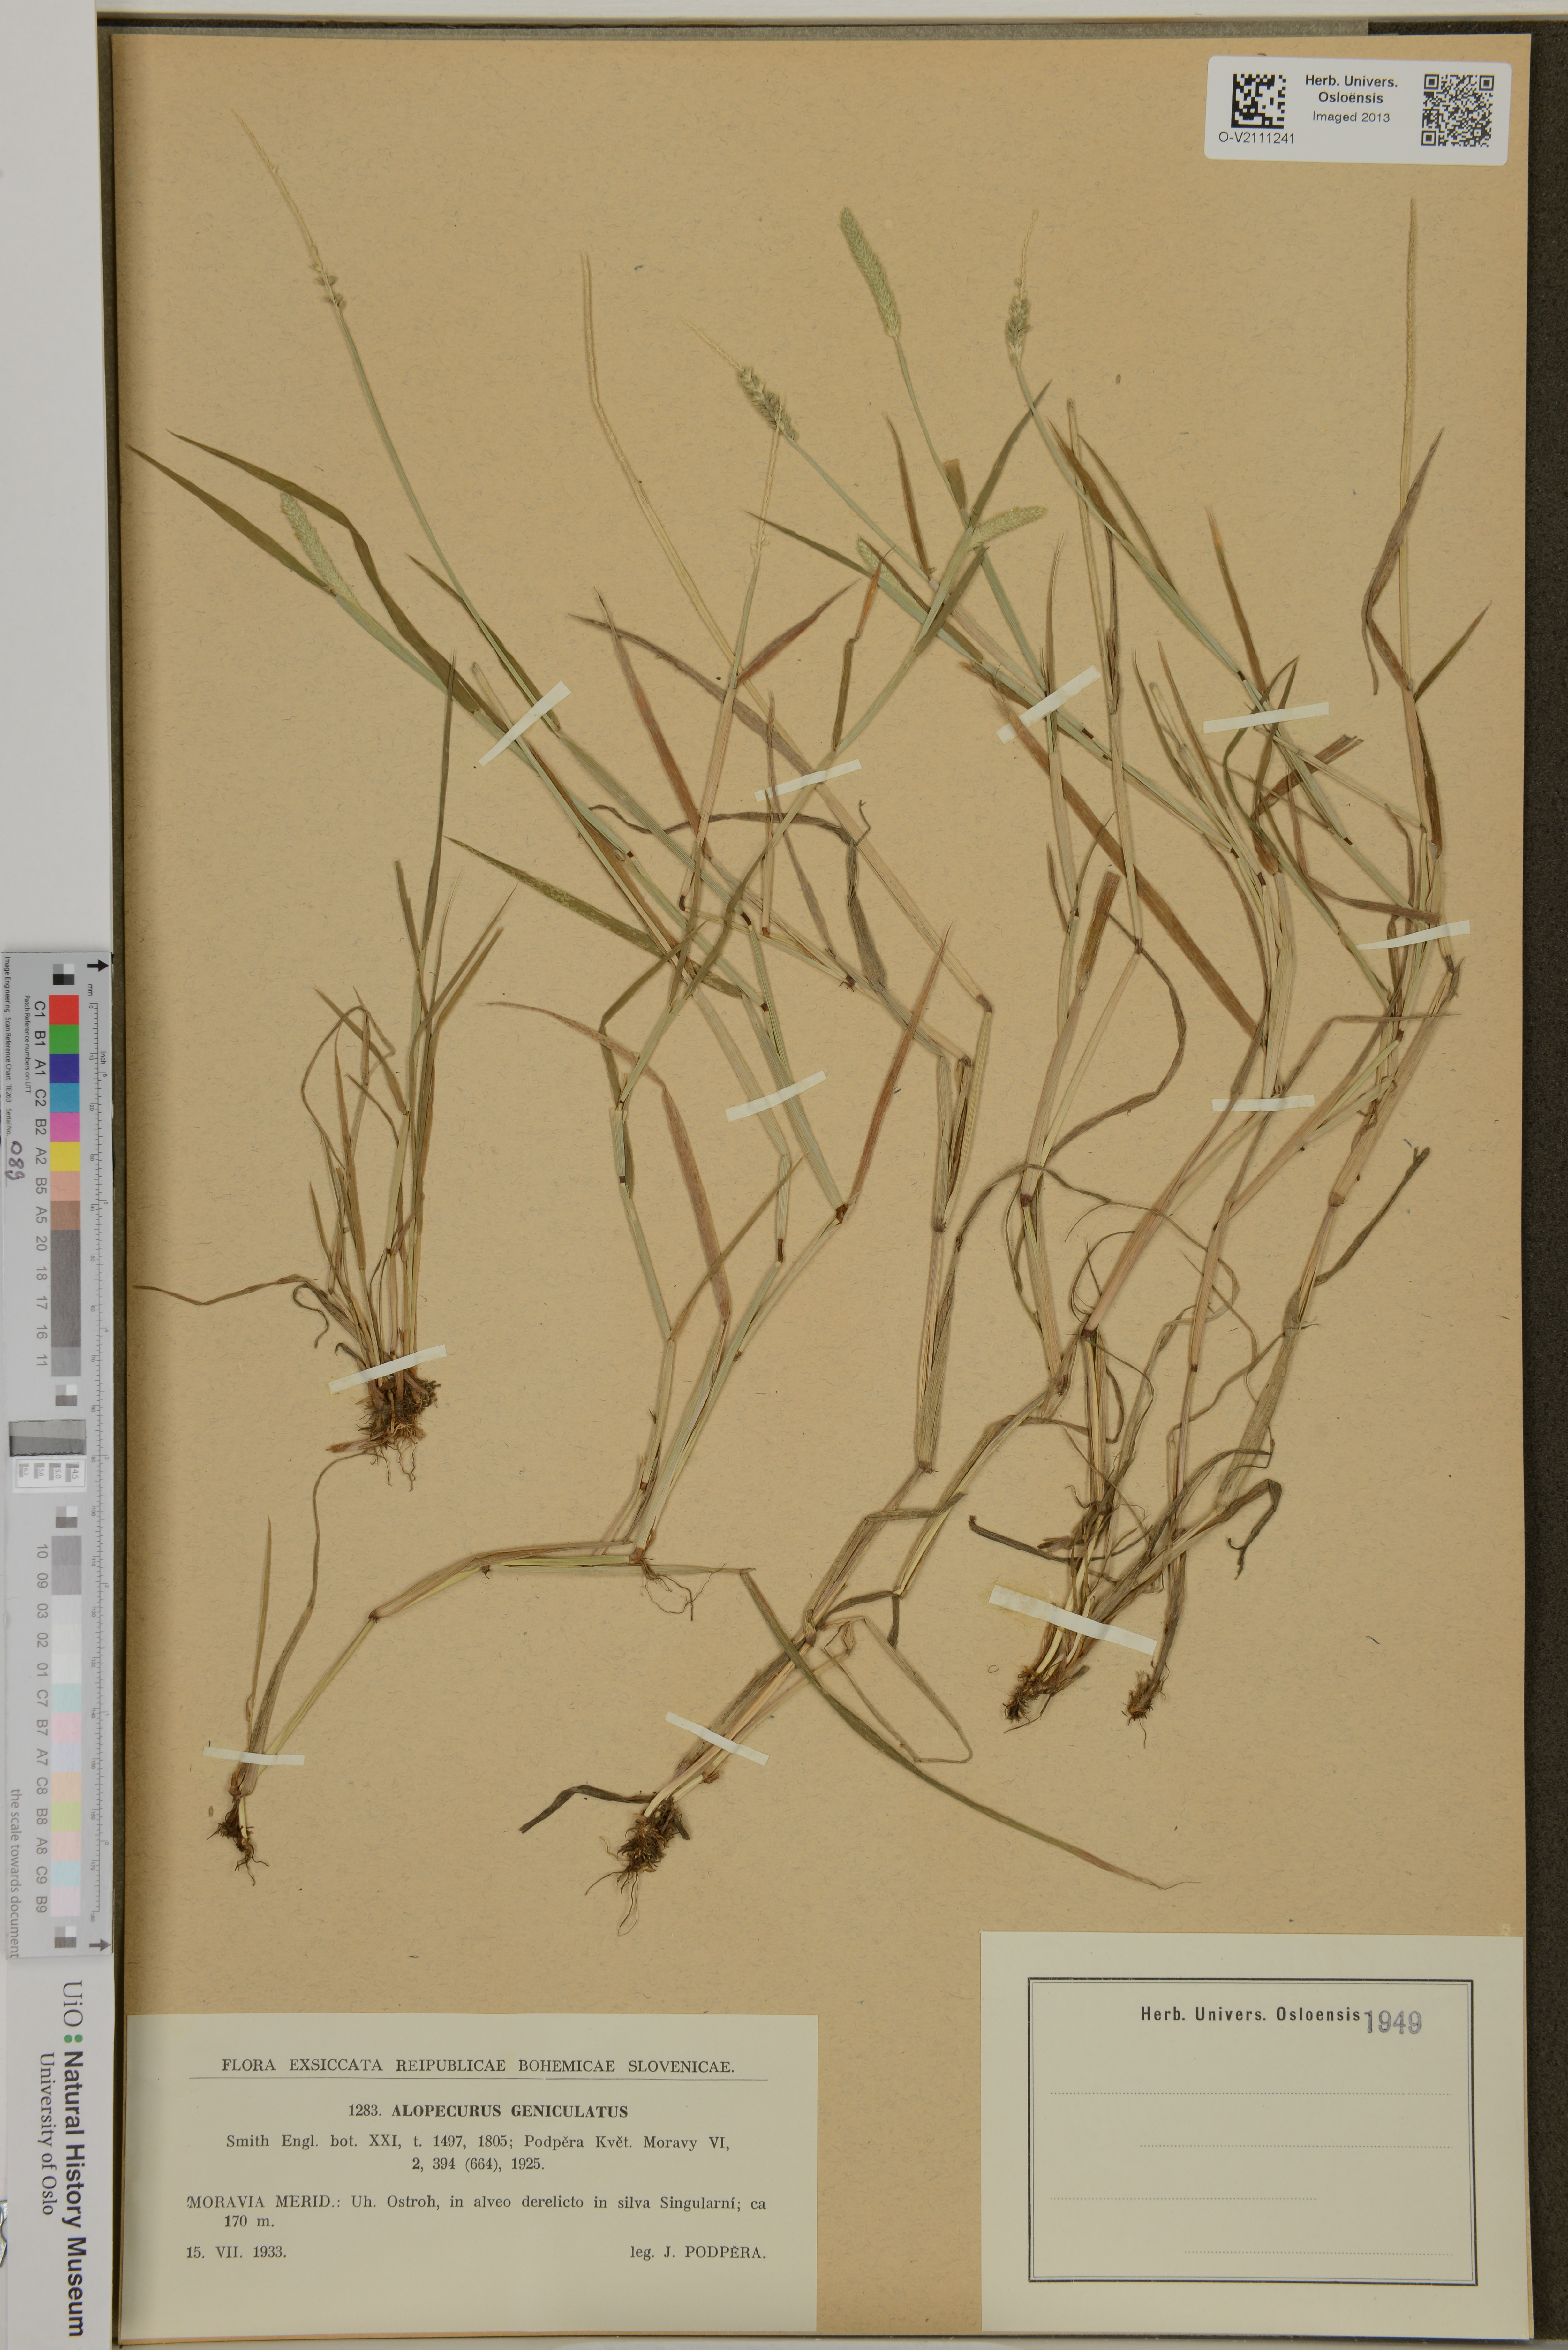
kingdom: Plantae
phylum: Tracheophyta
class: Liliopsida
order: Poales
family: Poaceae
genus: Alopecurus
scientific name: Alopecurus geniculatus
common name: Water foxtail
